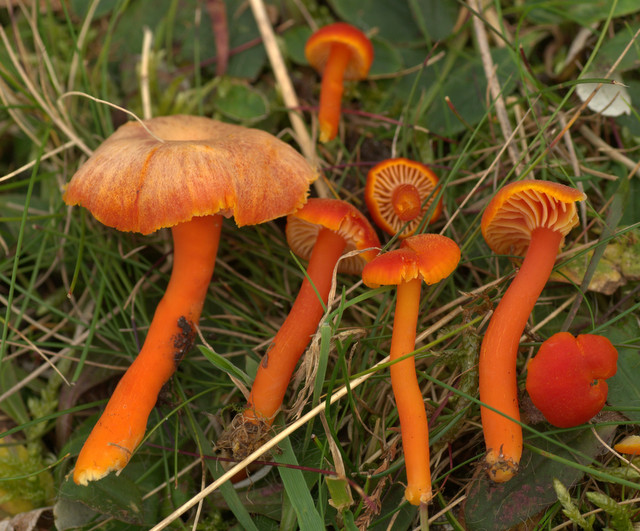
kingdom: Fungi
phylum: Basidiomycota
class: Agaricomycetes
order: Agaricales
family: Hygrophoraceae
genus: Hygrocybe
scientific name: Hygrocybe miniata
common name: mønje-vokshat
